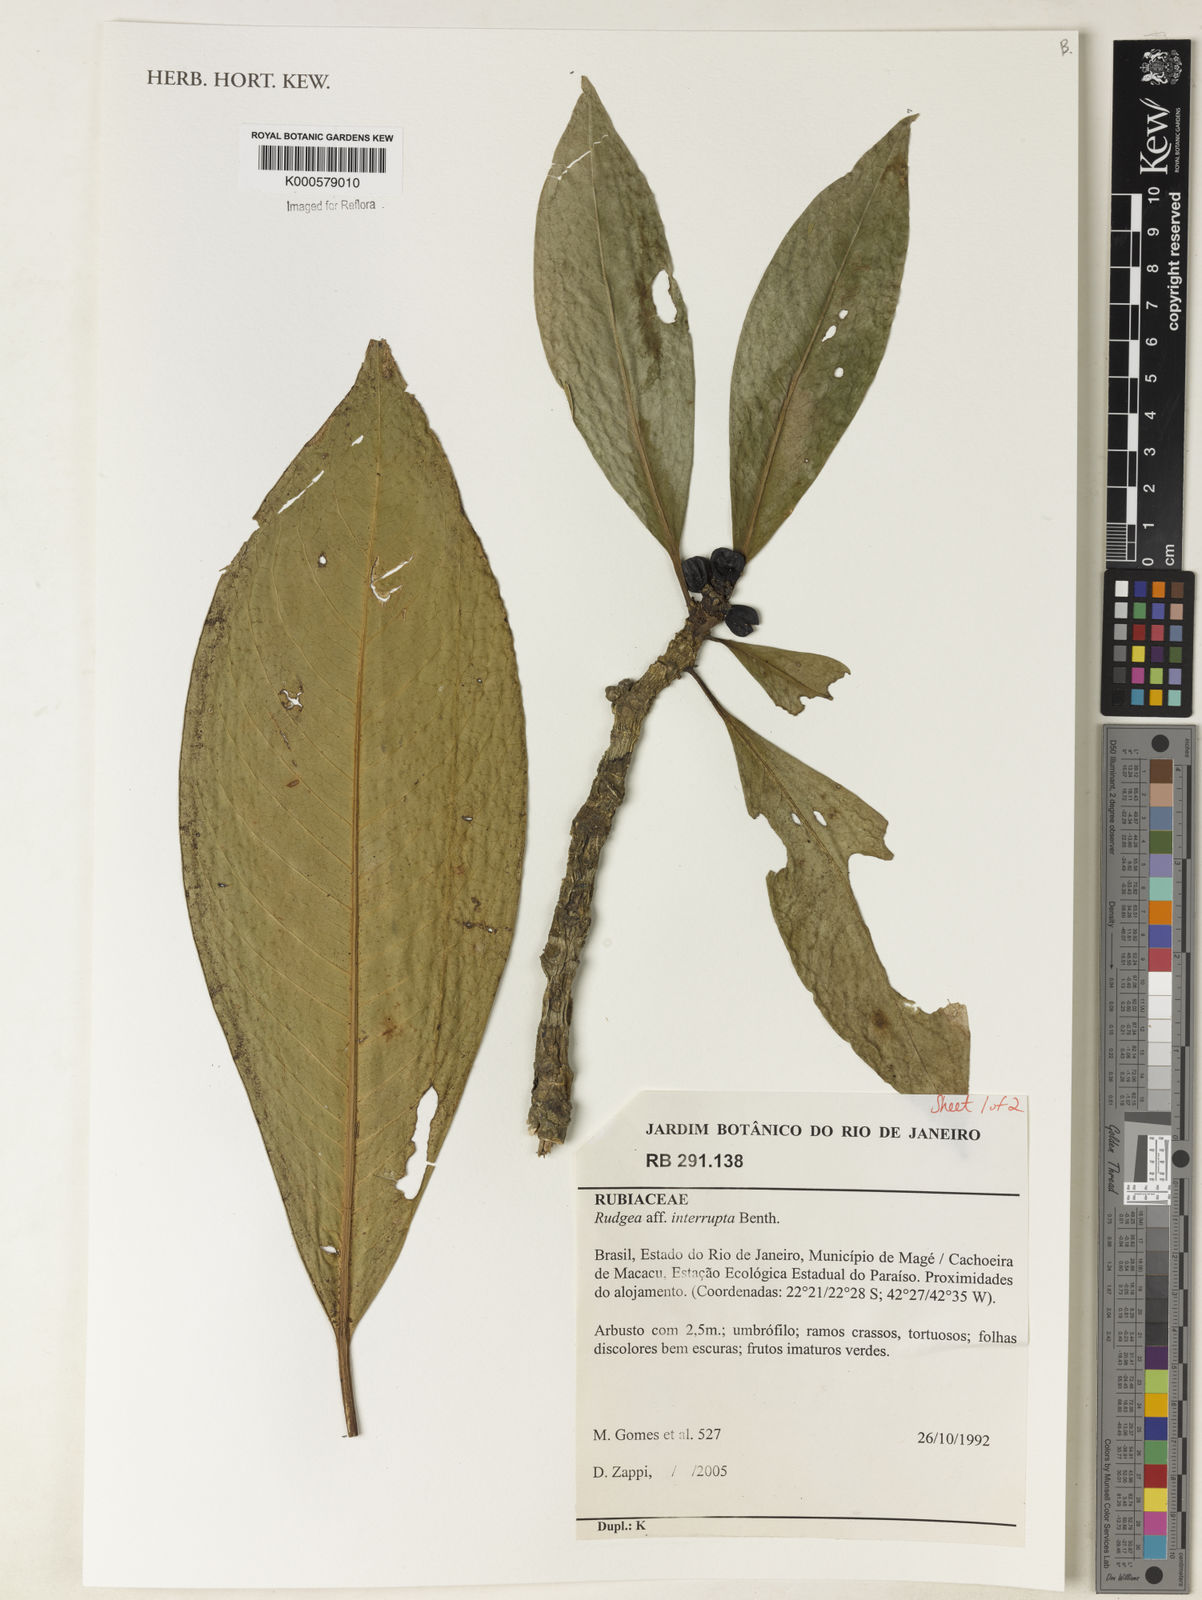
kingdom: Plantae
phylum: Tracheophyta
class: Magnoliopsida
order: Gentianales
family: Rubiaceae
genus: Rudgea
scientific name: Rudgea interrupta
